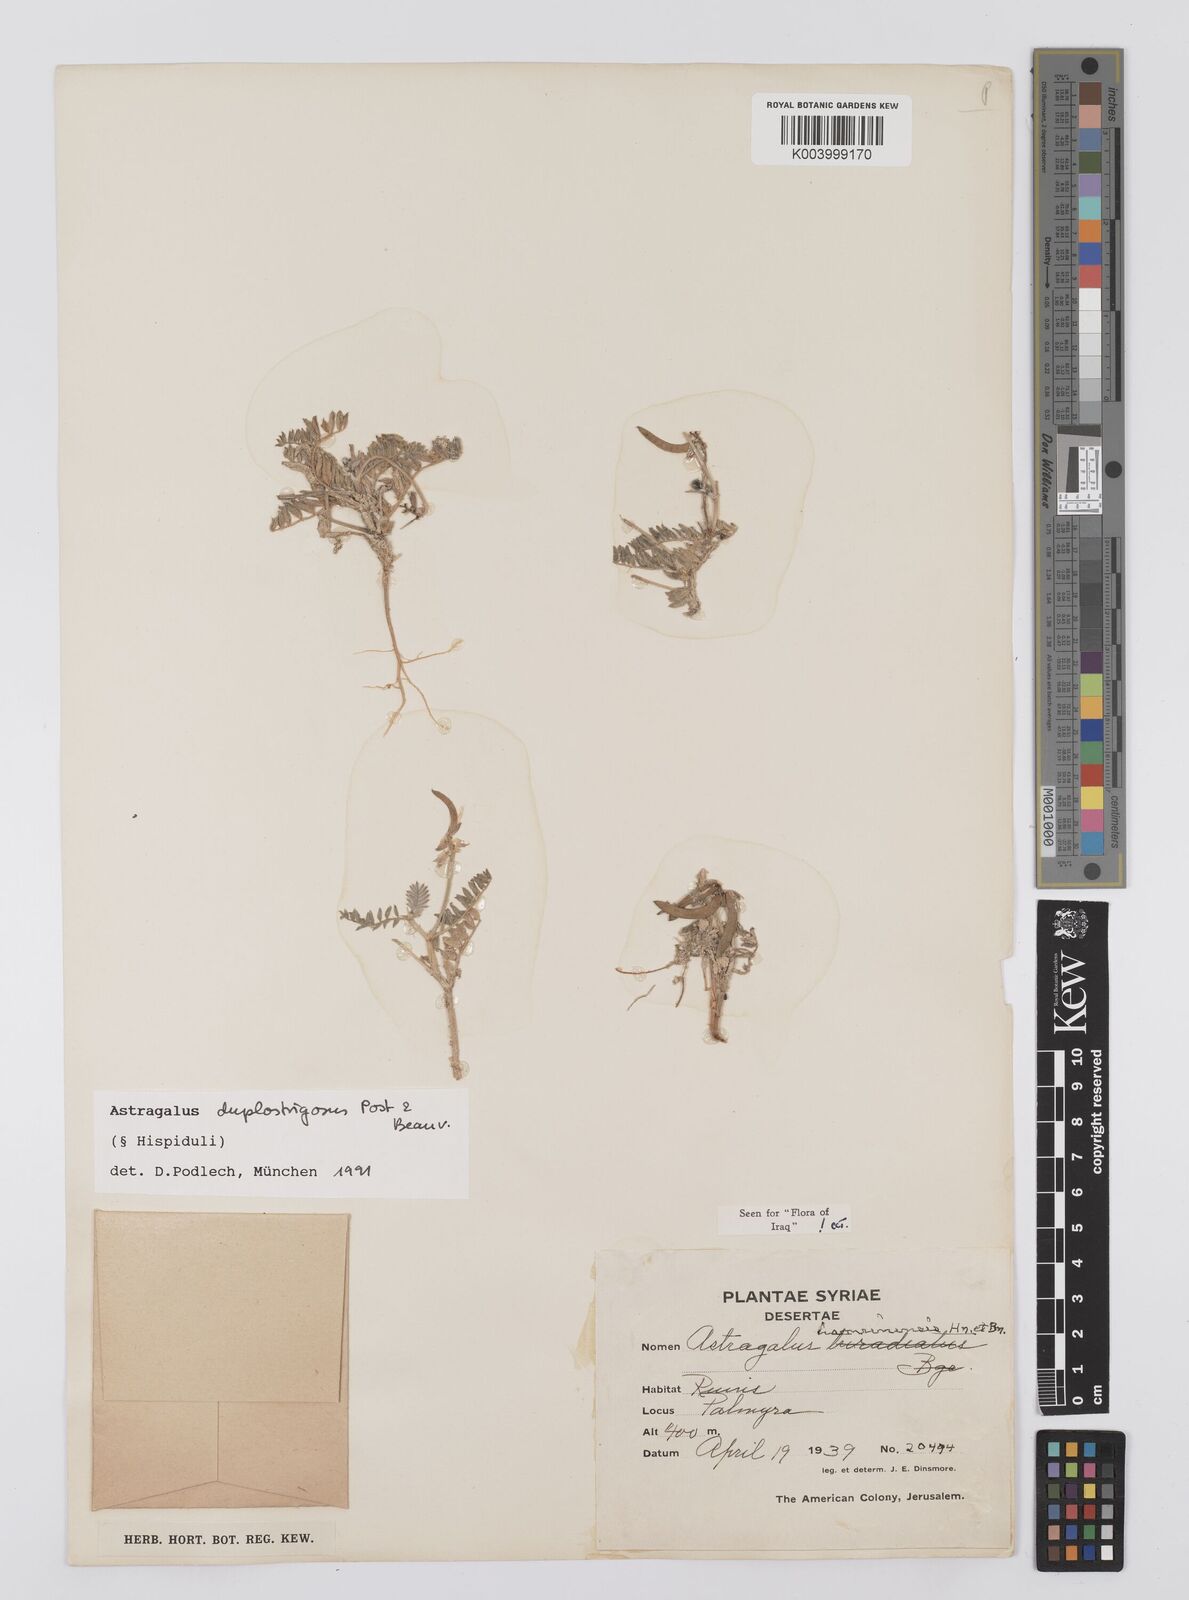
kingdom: Plantae
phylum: Tracheophyta
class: Magnoliopsida
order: Fabales
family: Fabaceae
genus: Astragalus
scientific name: Astragalus duplostrigosus
